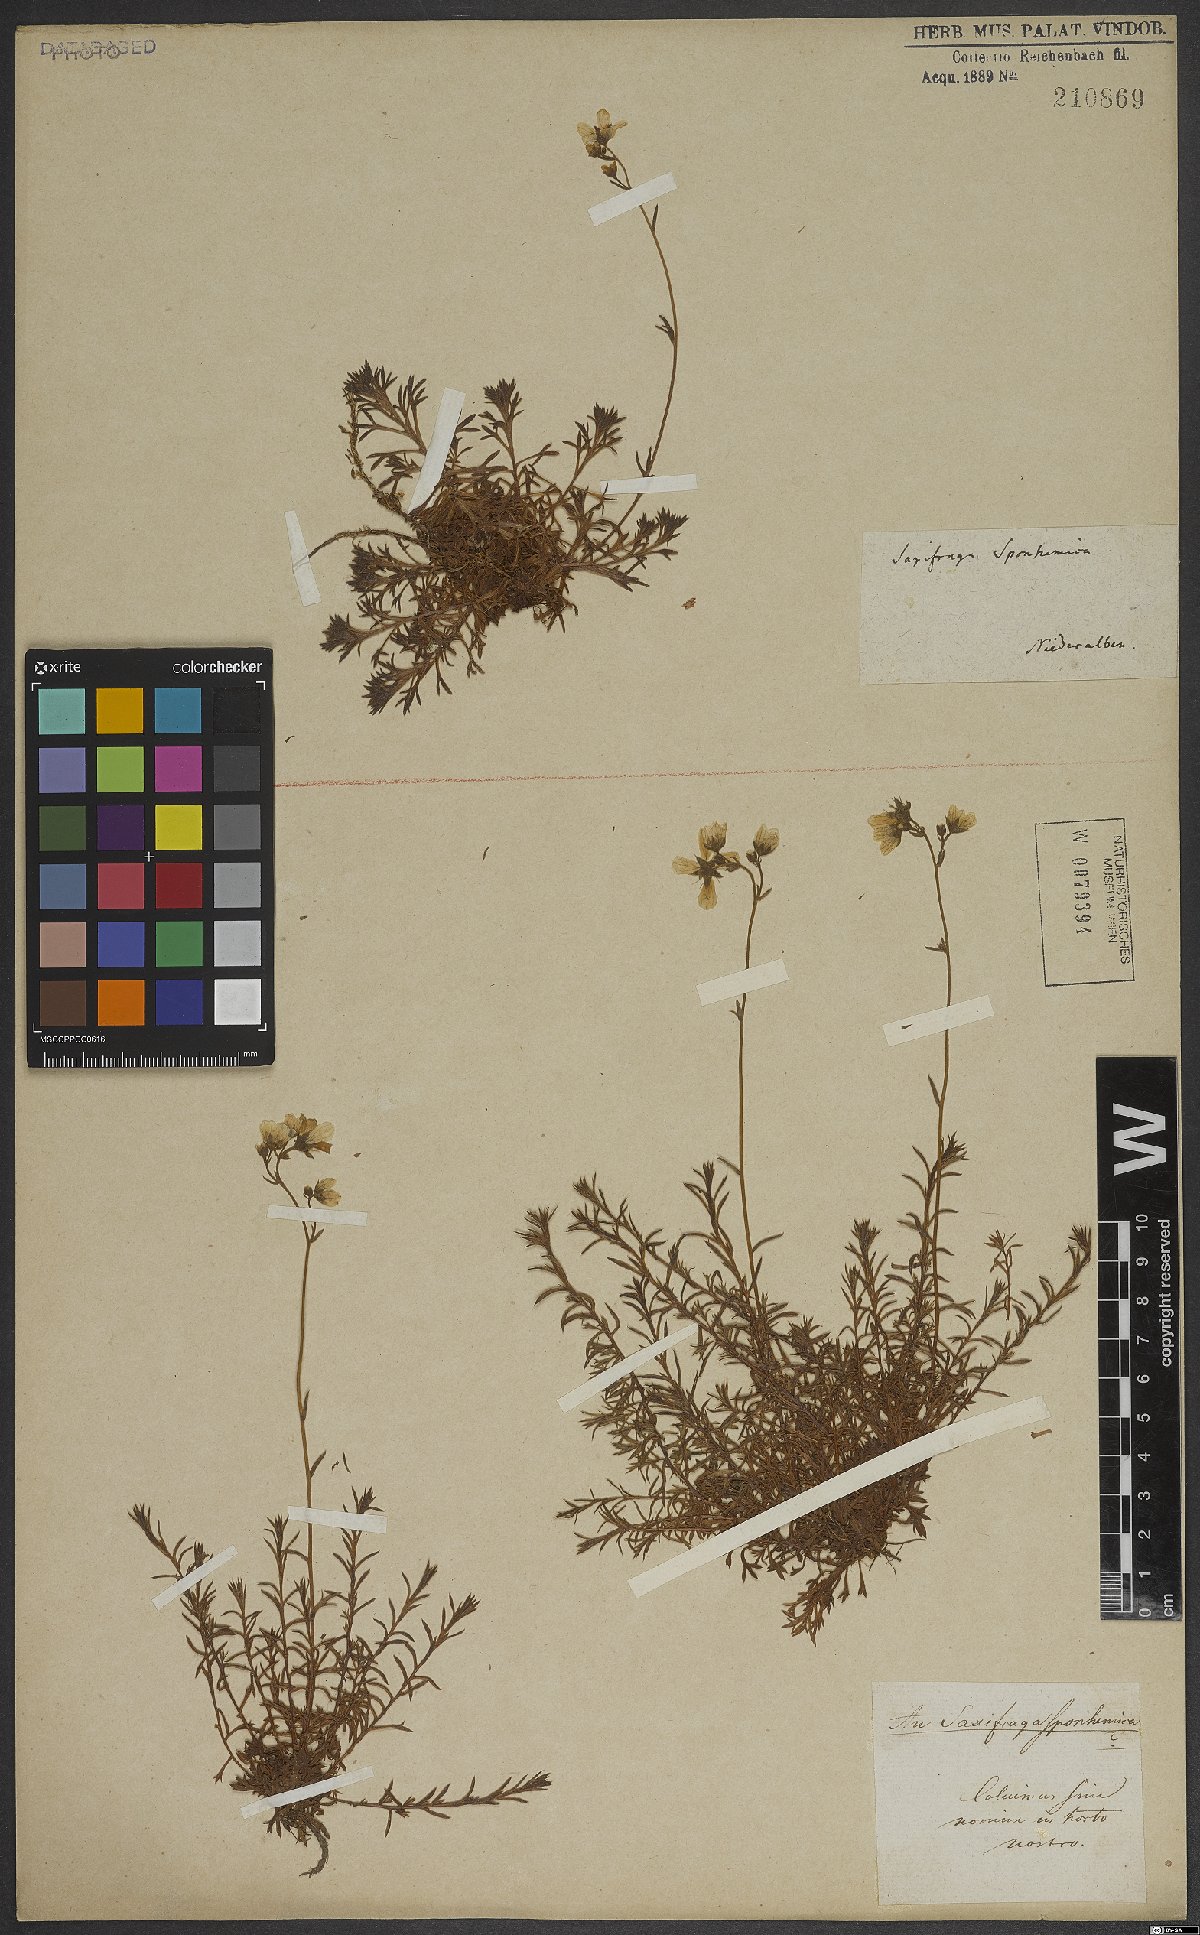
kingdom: Plantae
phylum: Tracheophyta
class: Magnoliopsida
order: Saxifragales
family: Saxifragaceae
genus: Saxifraga
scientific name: Saxifraga rosacea
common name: Irish saxifrage
